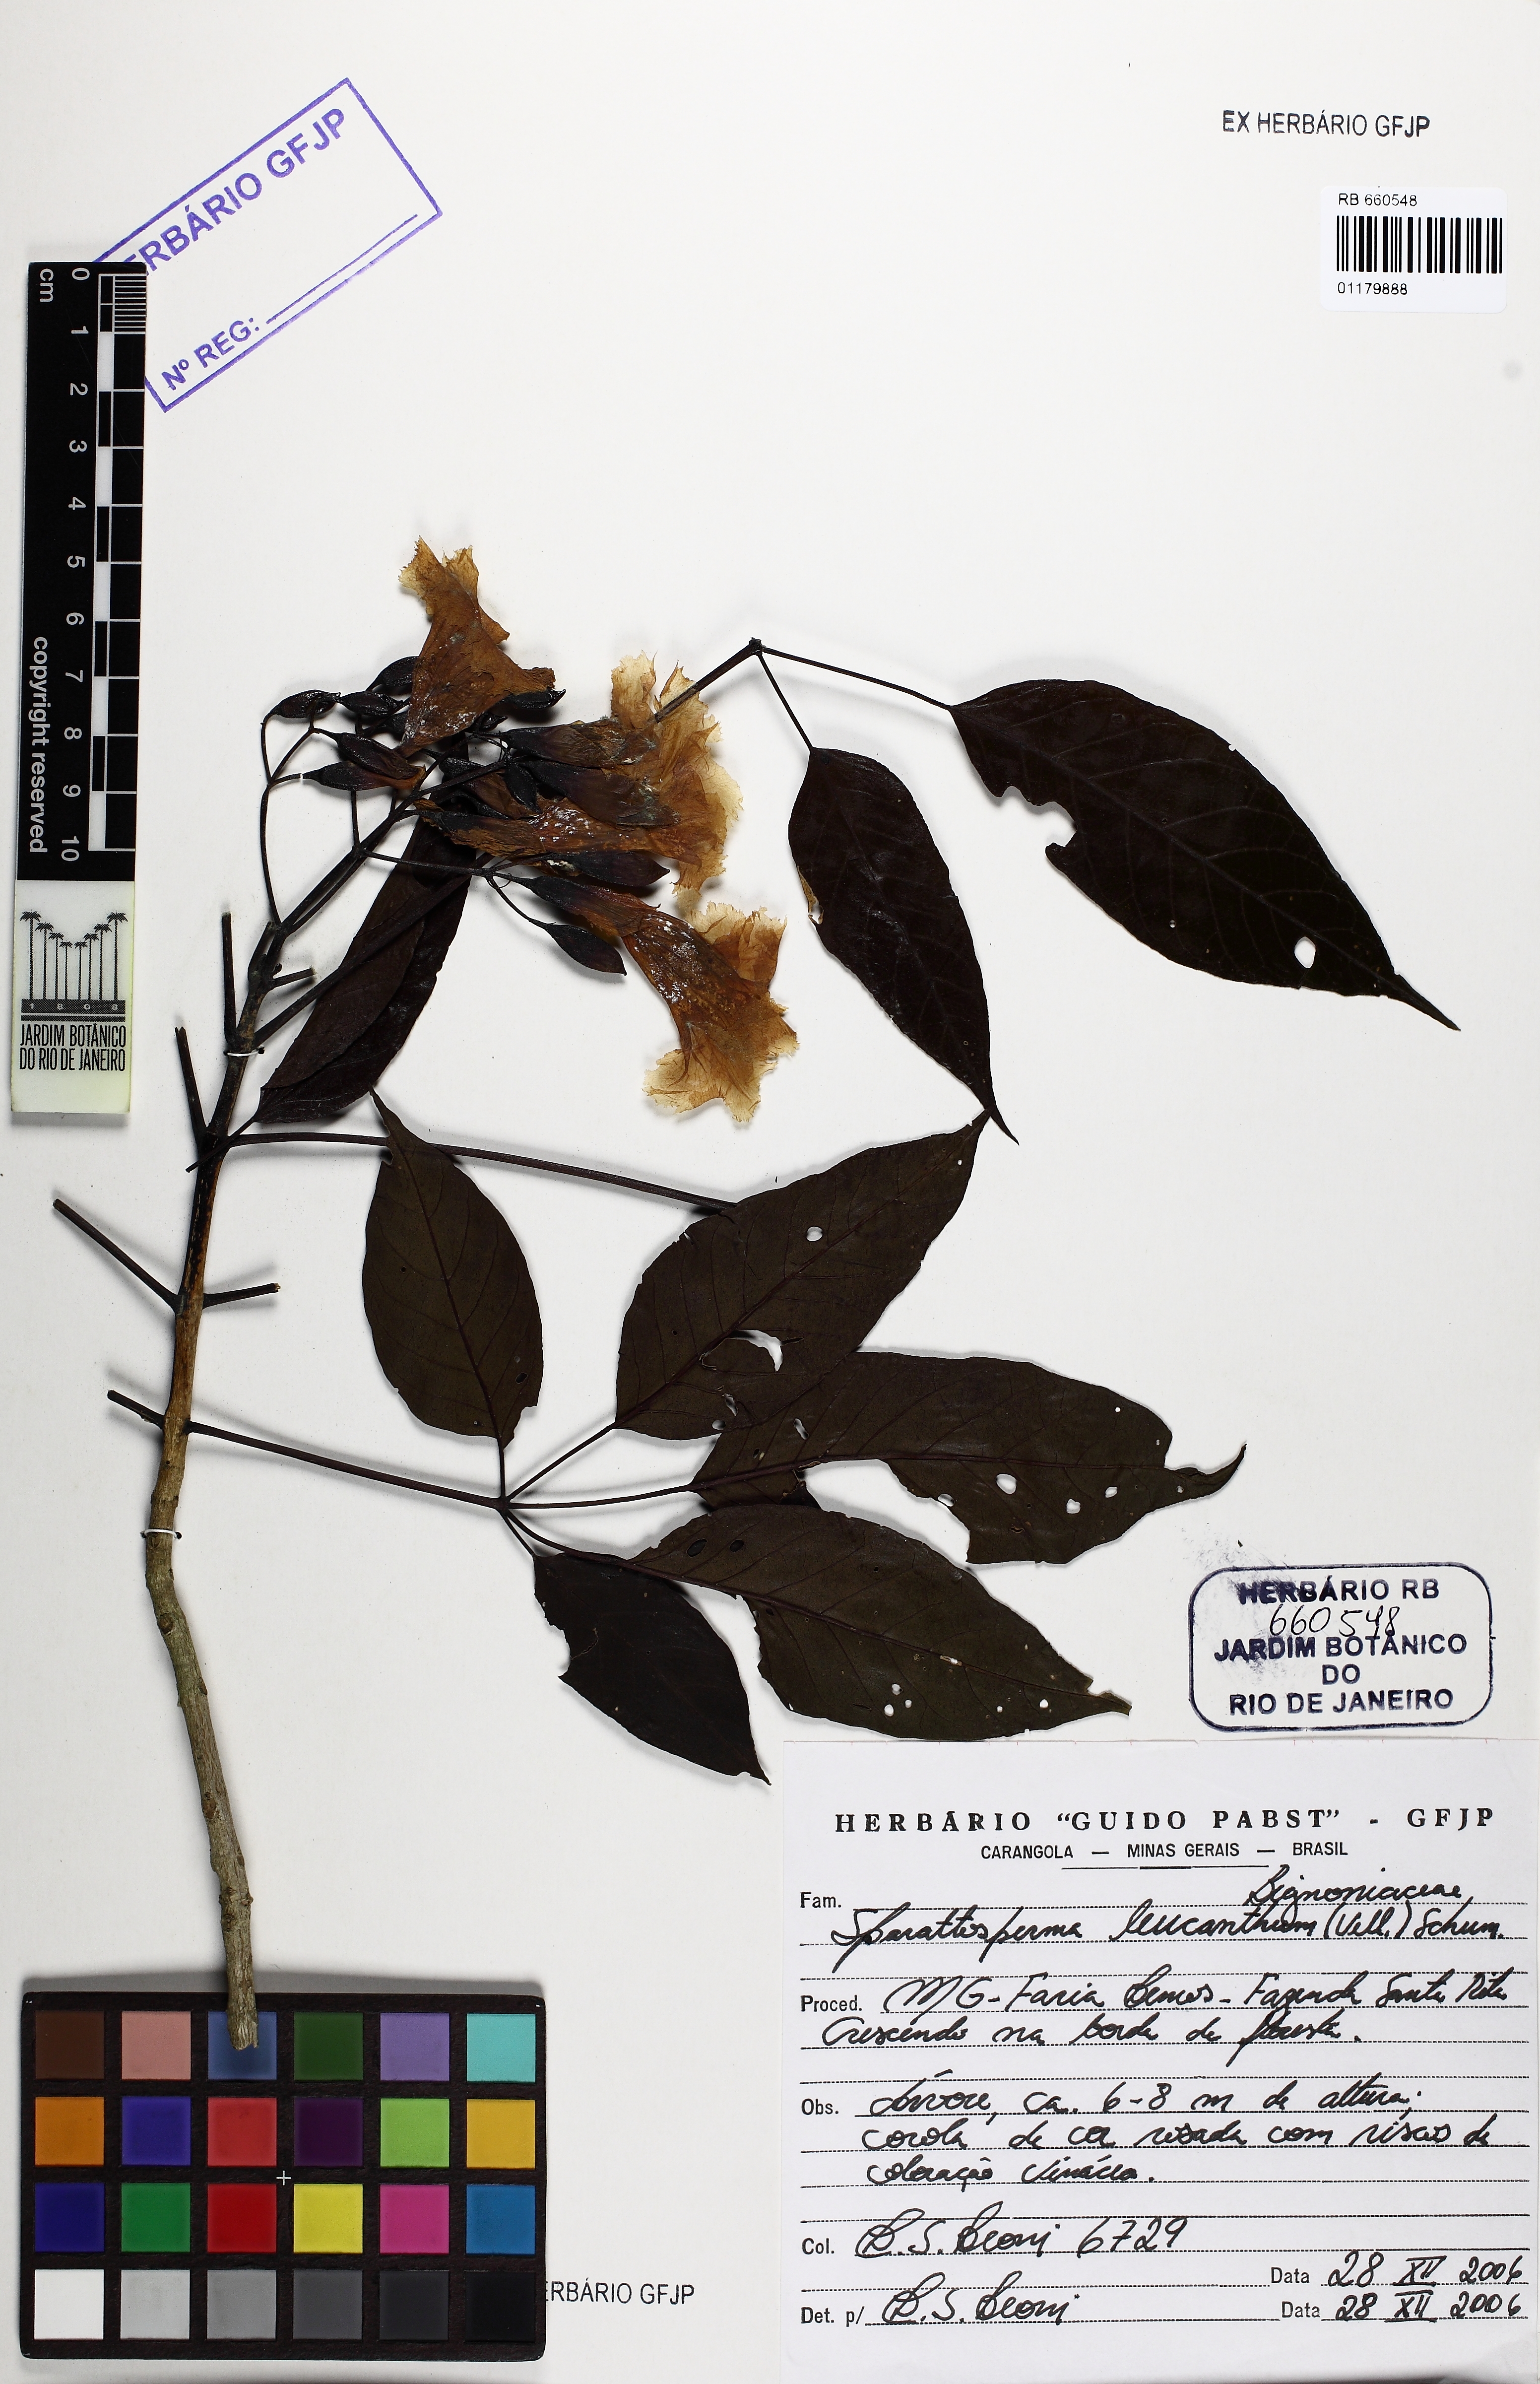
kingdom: Plantae
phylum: Tracheophyta
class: Magnoliopsida
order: Lamiales
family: Bignoniaceae
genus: Sparattosperma
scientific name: Sparattosperma leucanthum
